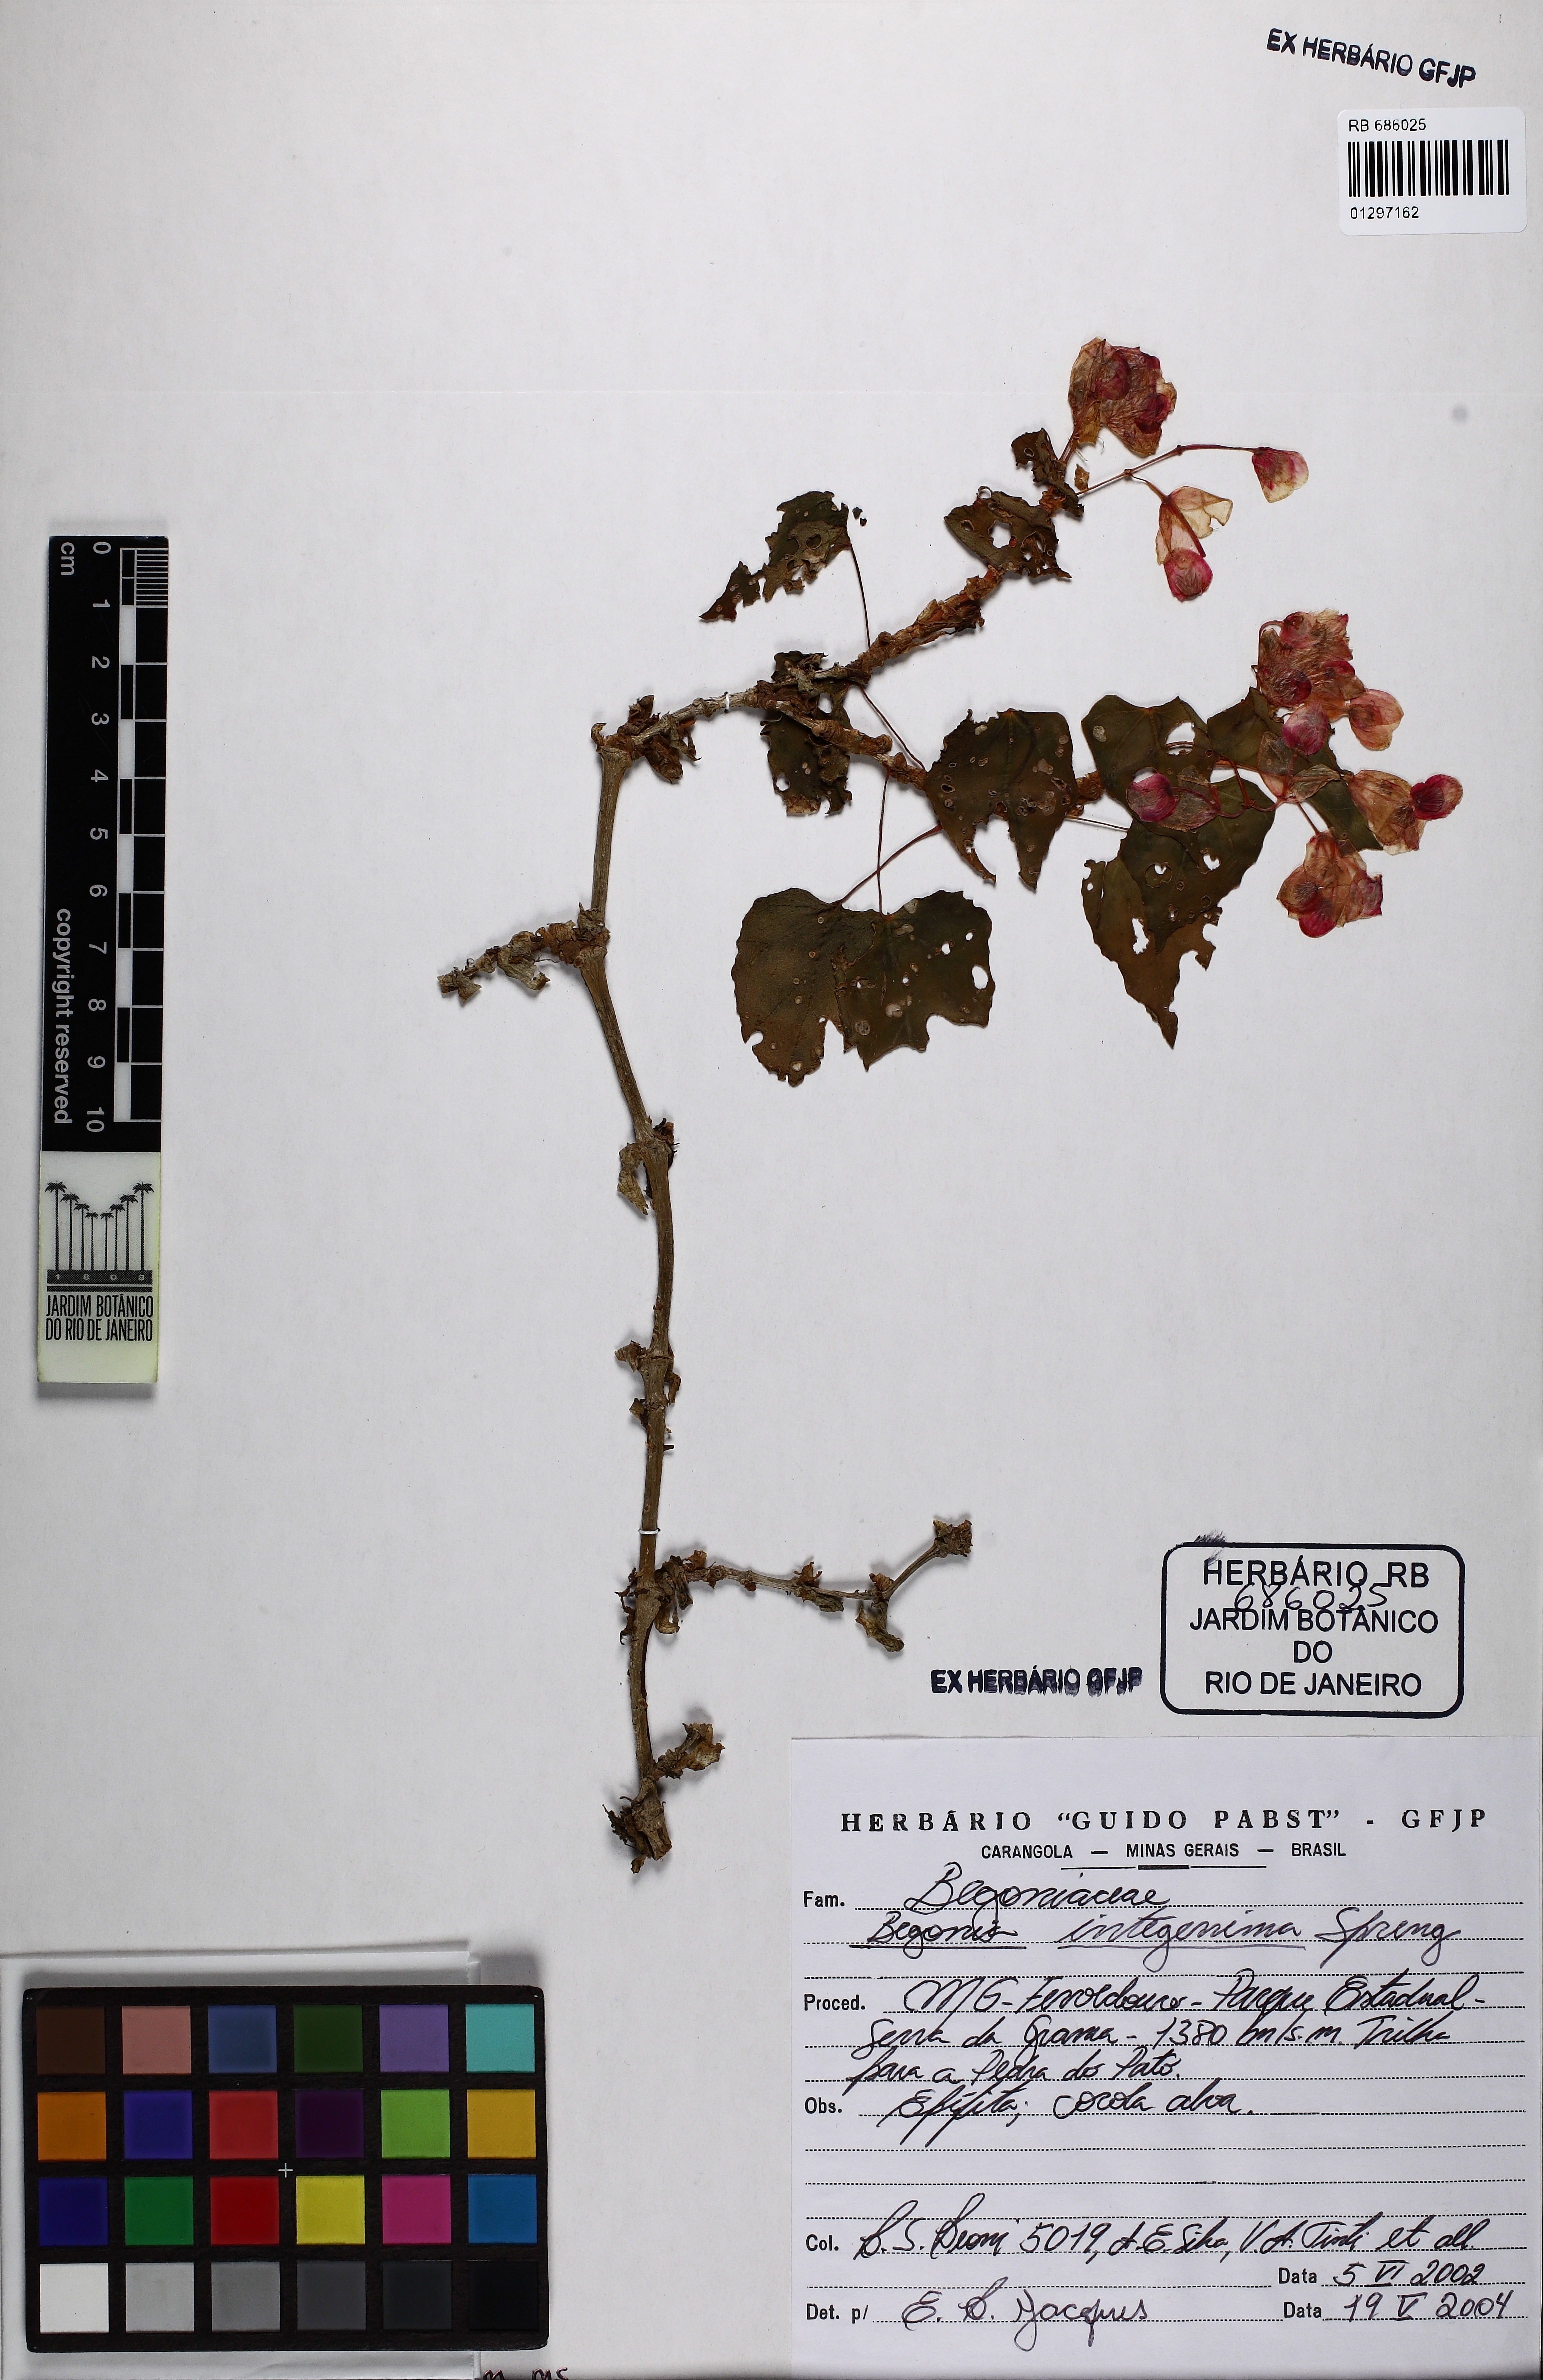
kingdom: Plantae
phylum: Tracheophyta
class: Magnoliopsida
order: Cucurbitales
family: Begoniaceae
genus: Begonia
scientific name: Begonia integerrima
